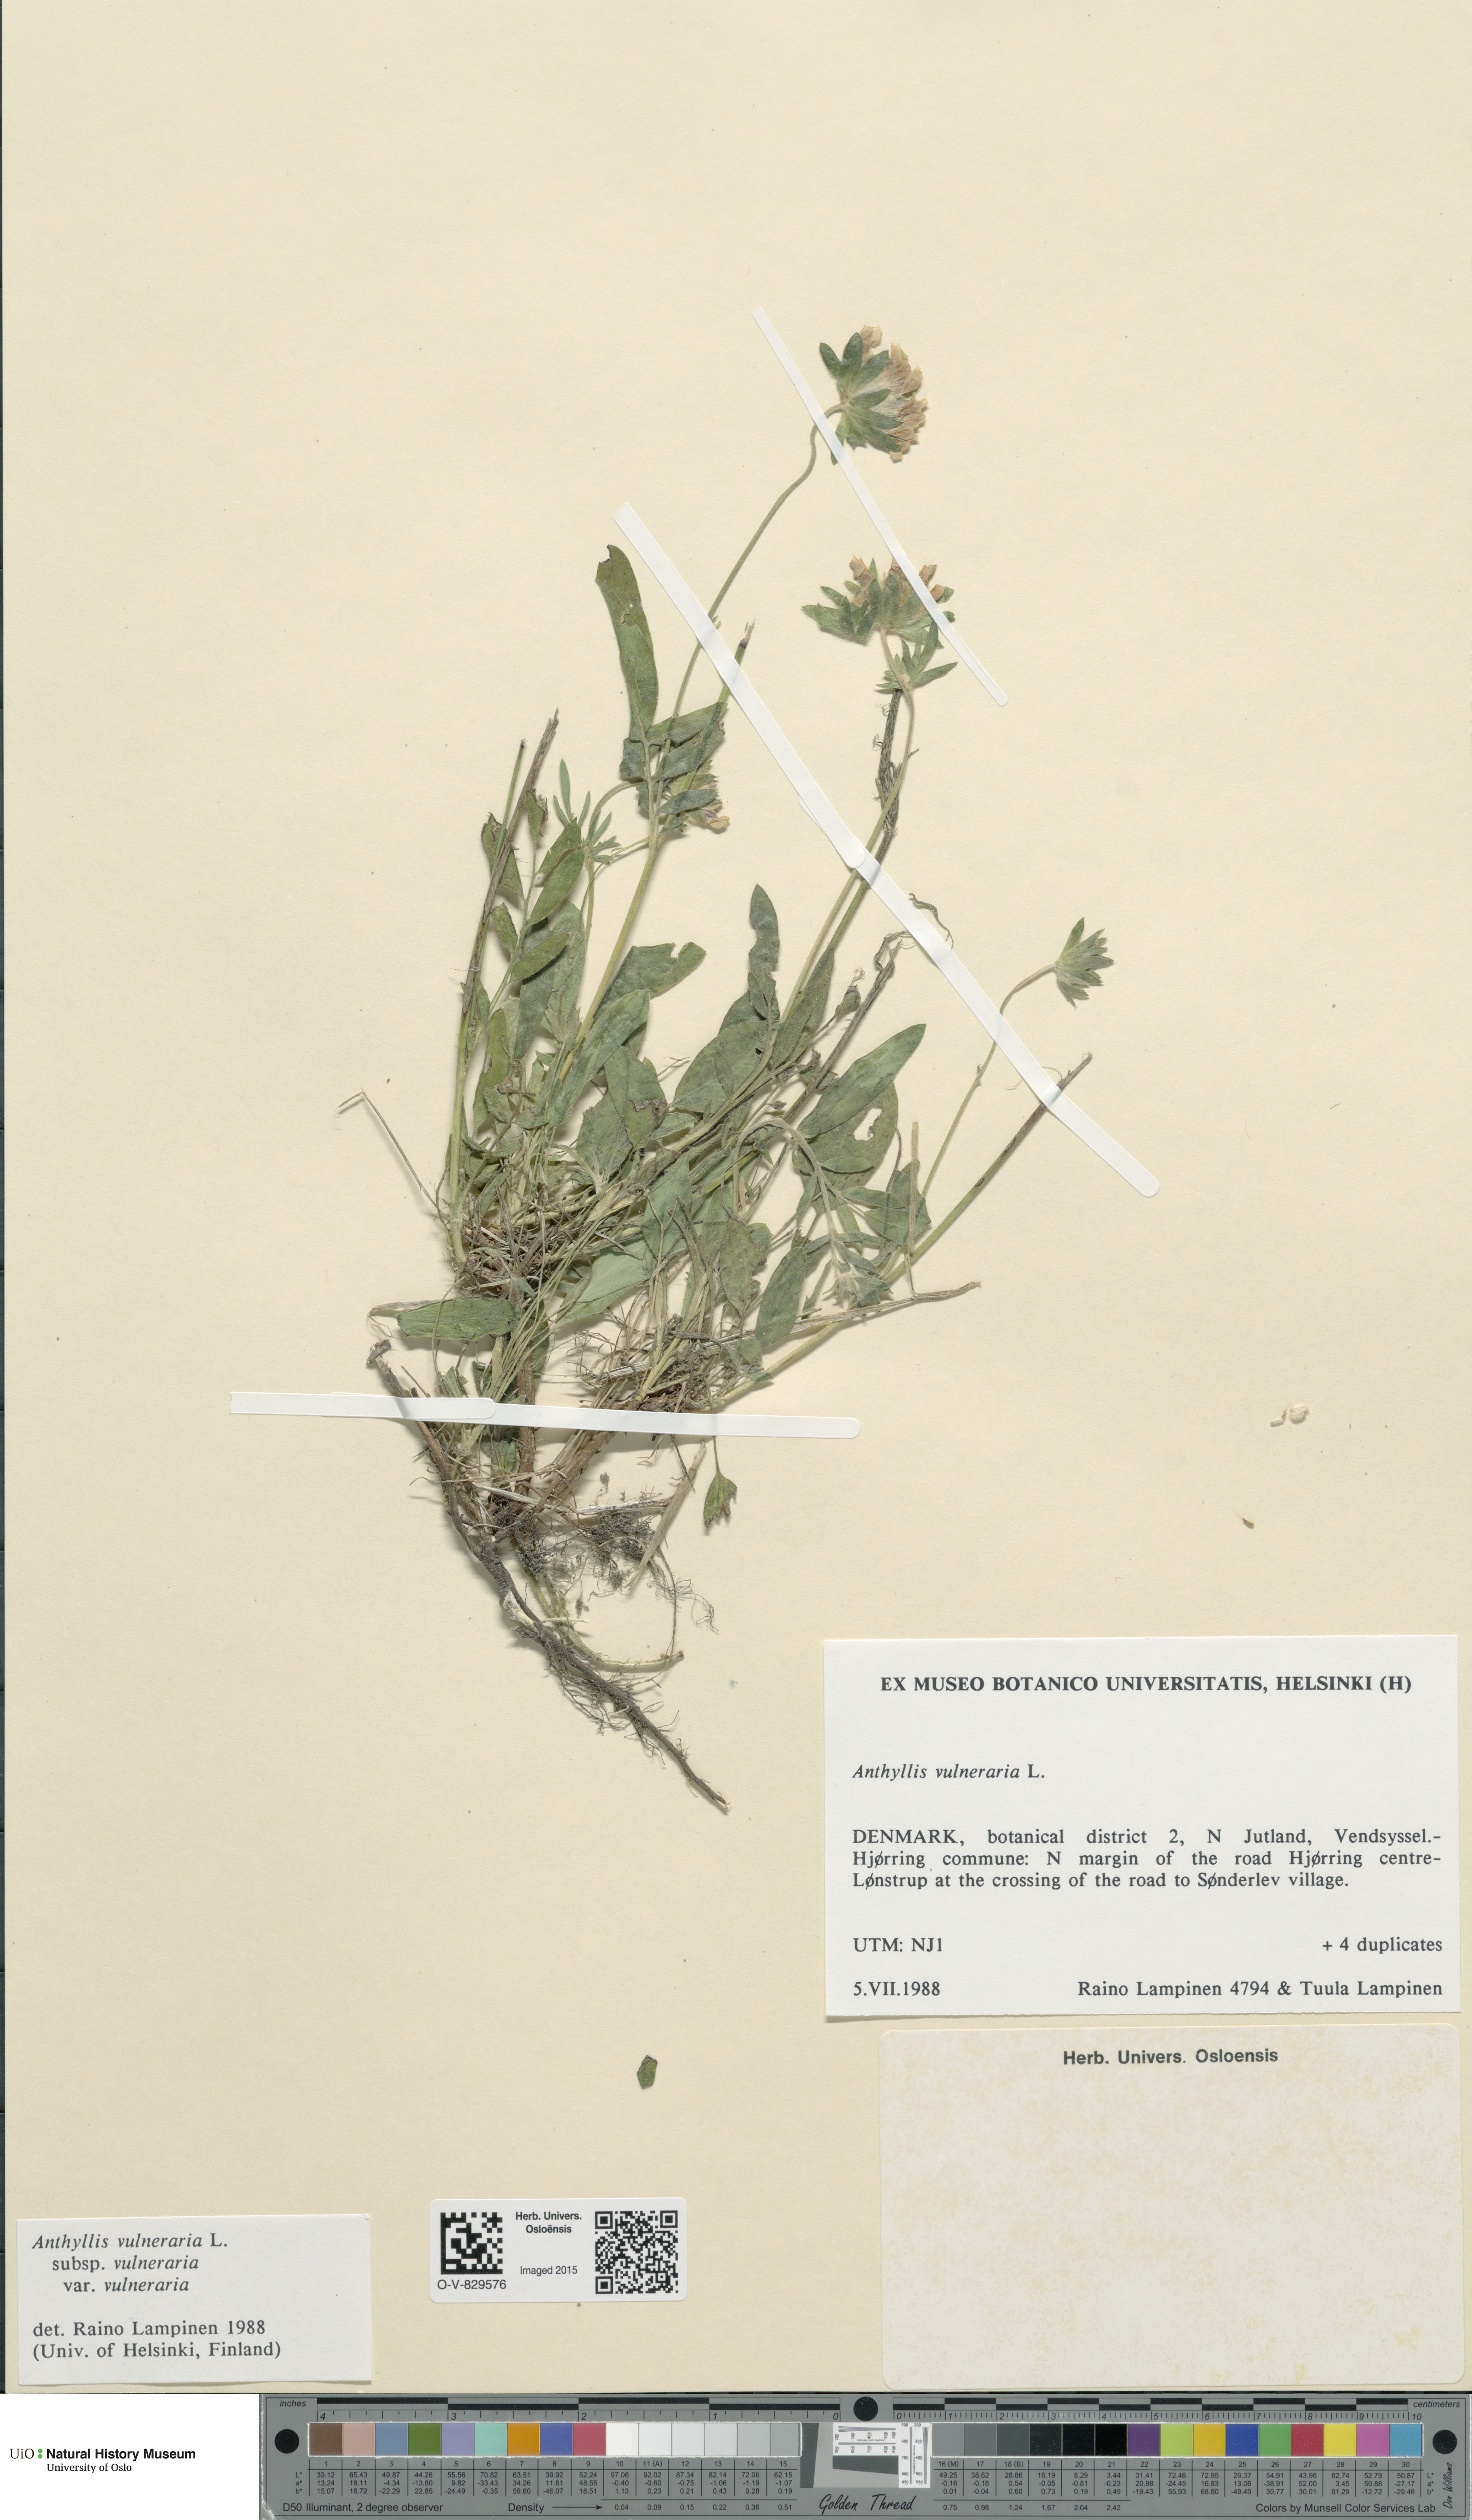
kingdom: Plantae
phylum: Tracheophyta
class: Magnoliopsida
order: Fabales
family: Fabaceae
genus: Anthyllis
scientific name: Anthyllis vulneraria
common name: Kidney vetch
